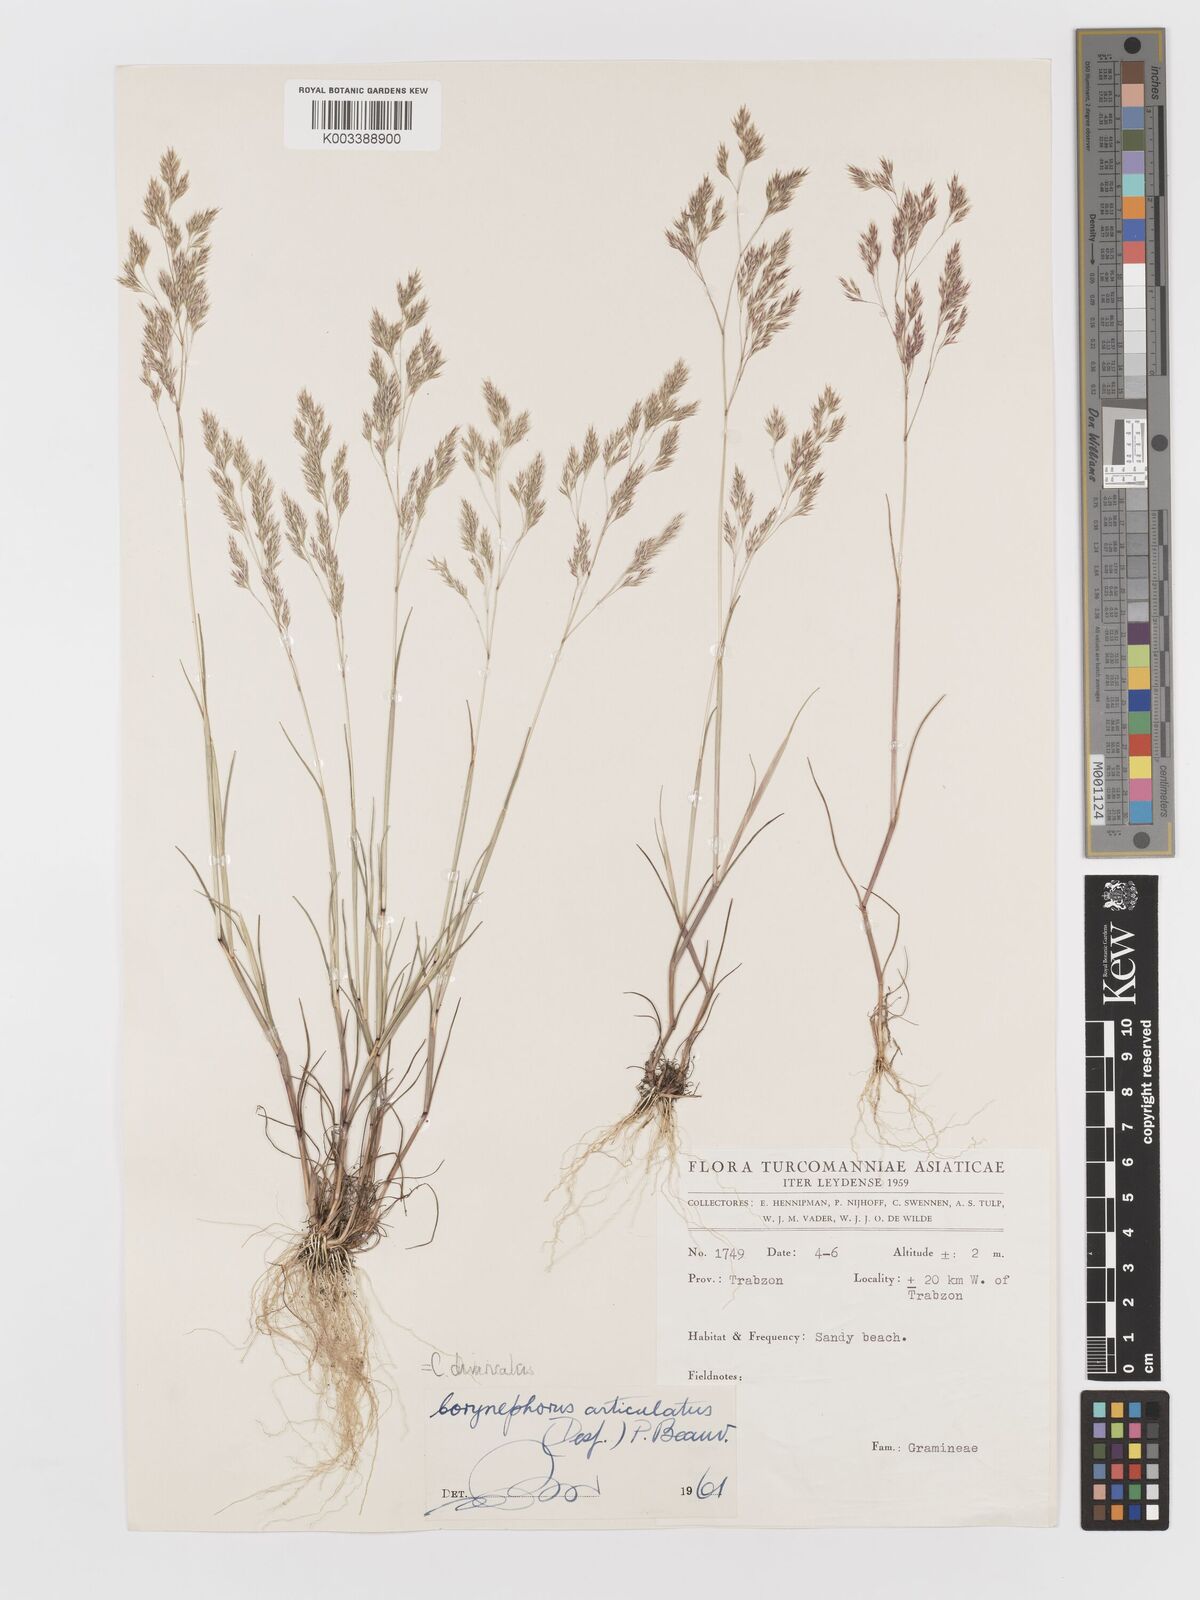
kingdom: Plantae
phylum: Tracheophyta
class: Liliopsida
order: Poales
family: Poaceae
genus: Corynephorus
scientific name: Corynephorus divaricatus
